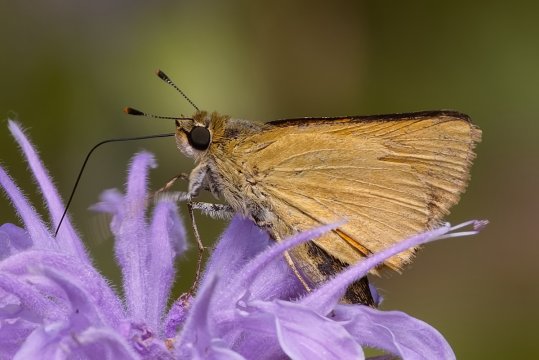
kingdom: Animalia
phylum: Arthropoda
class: Insecta
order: Lepidoptera
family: Hesperiidae
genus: Atrytone
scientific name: Atrytone delaware
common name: Delaware Skipper
